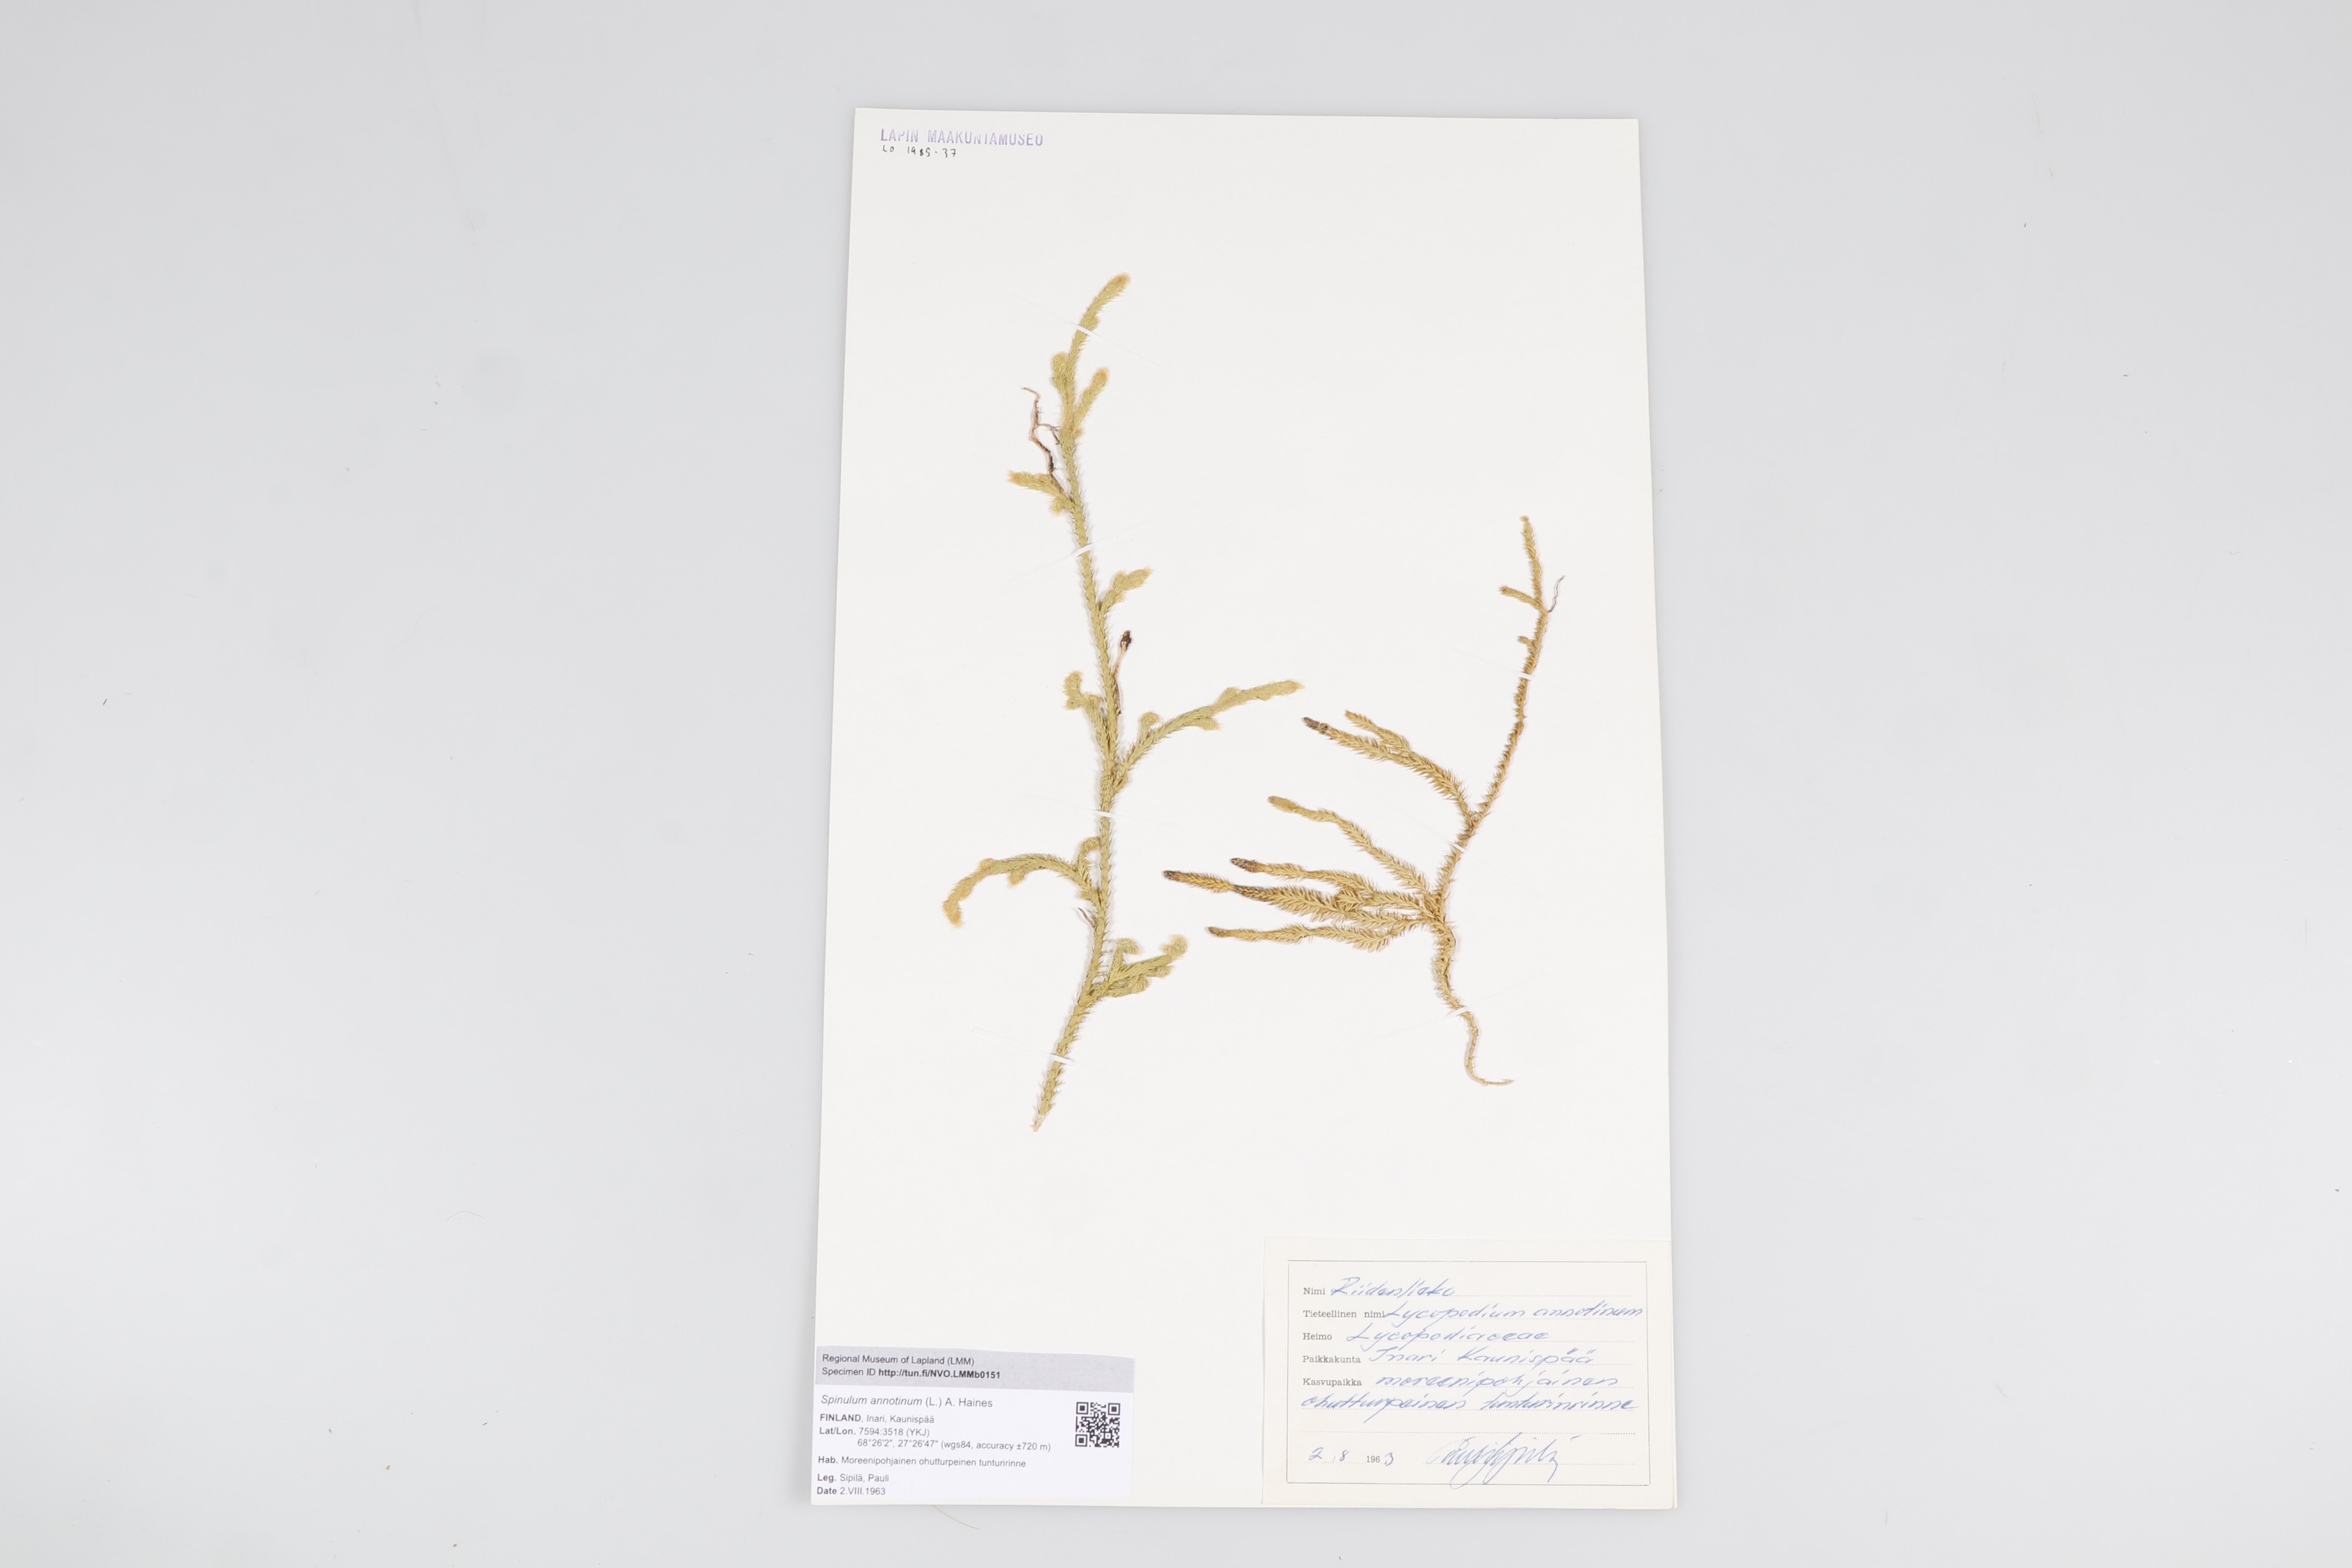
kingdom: Plantae
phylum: Tracheophyta
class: Lycopodiopsida
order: Lycopodiales
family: Lycopodiaceae
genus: Spinulum
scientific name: Spinulum annotinum
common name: Interrupted club-moss
